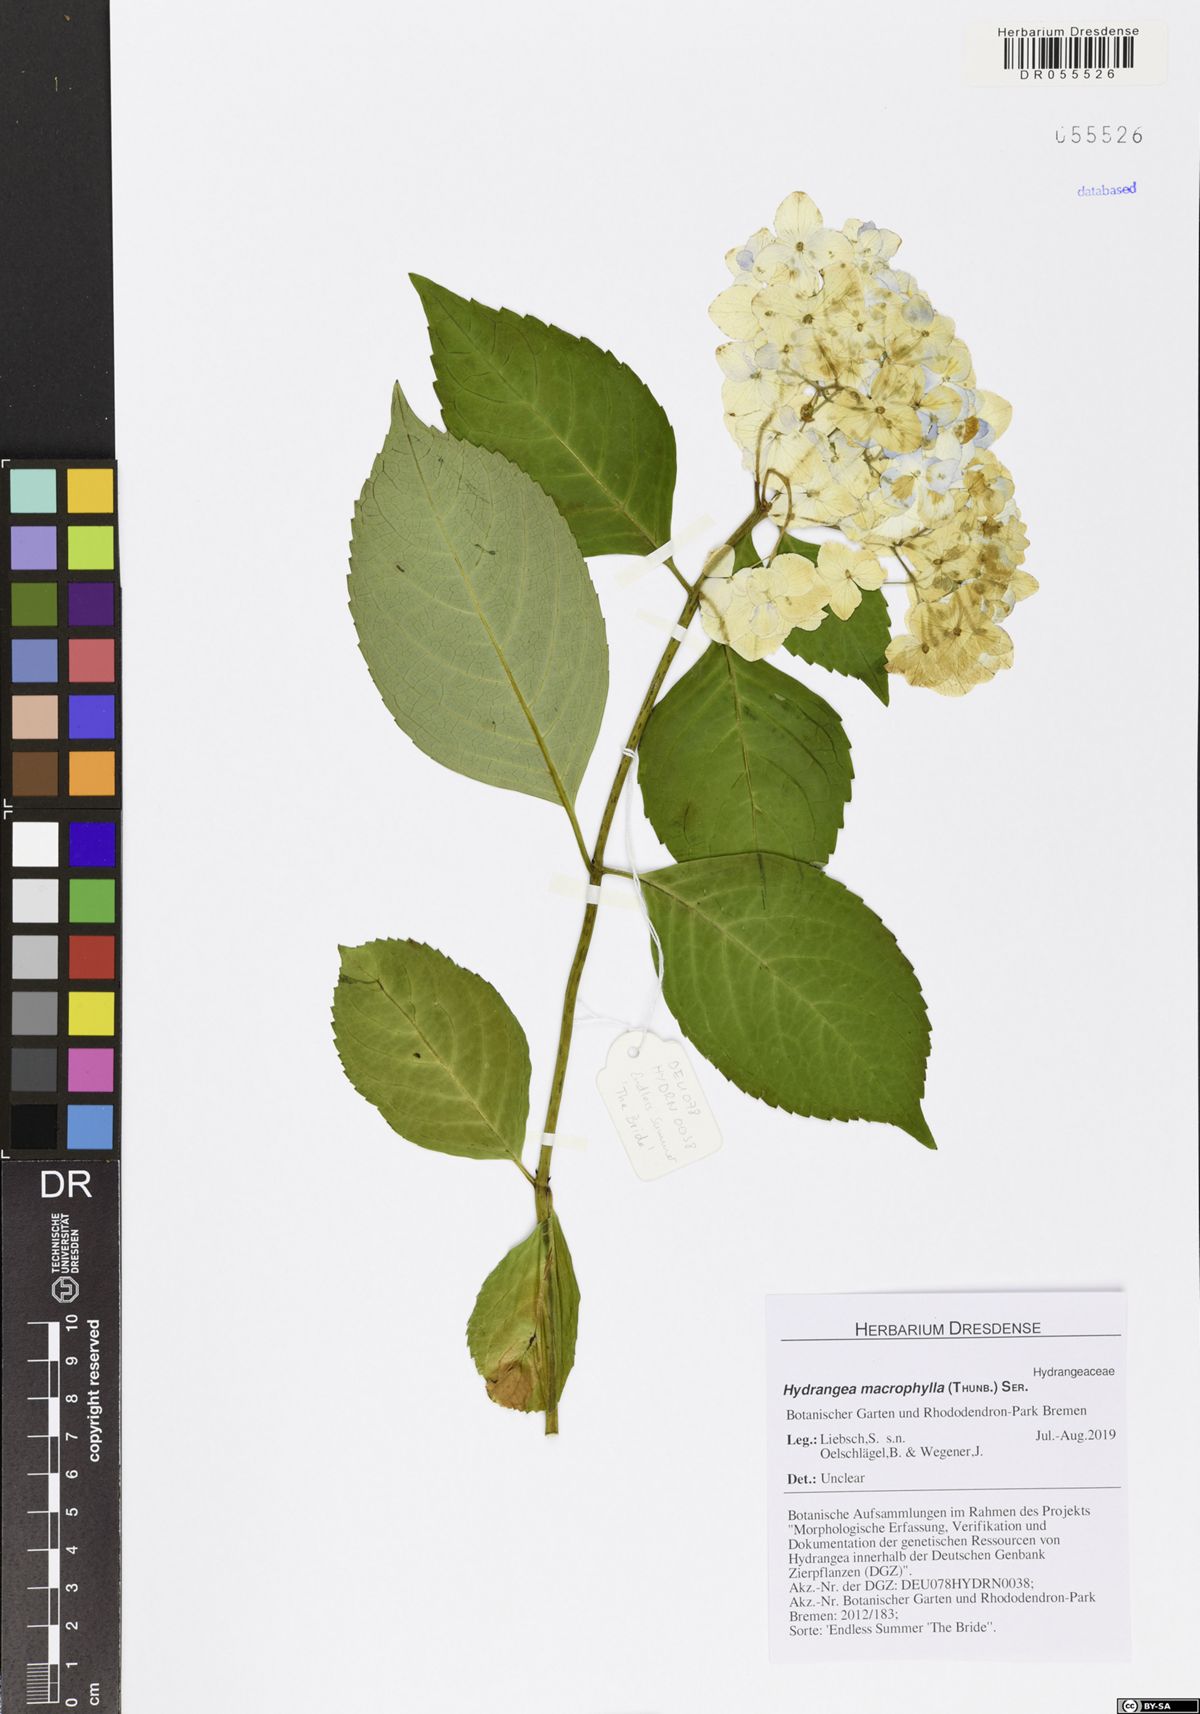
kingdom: Plantae
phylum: Tracheophyta
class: Magnoliopsida
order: Cornales
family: Hydrangeaceae
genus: Hydrangea
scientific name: Hydrangea macrophylla
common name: Hydrangea
